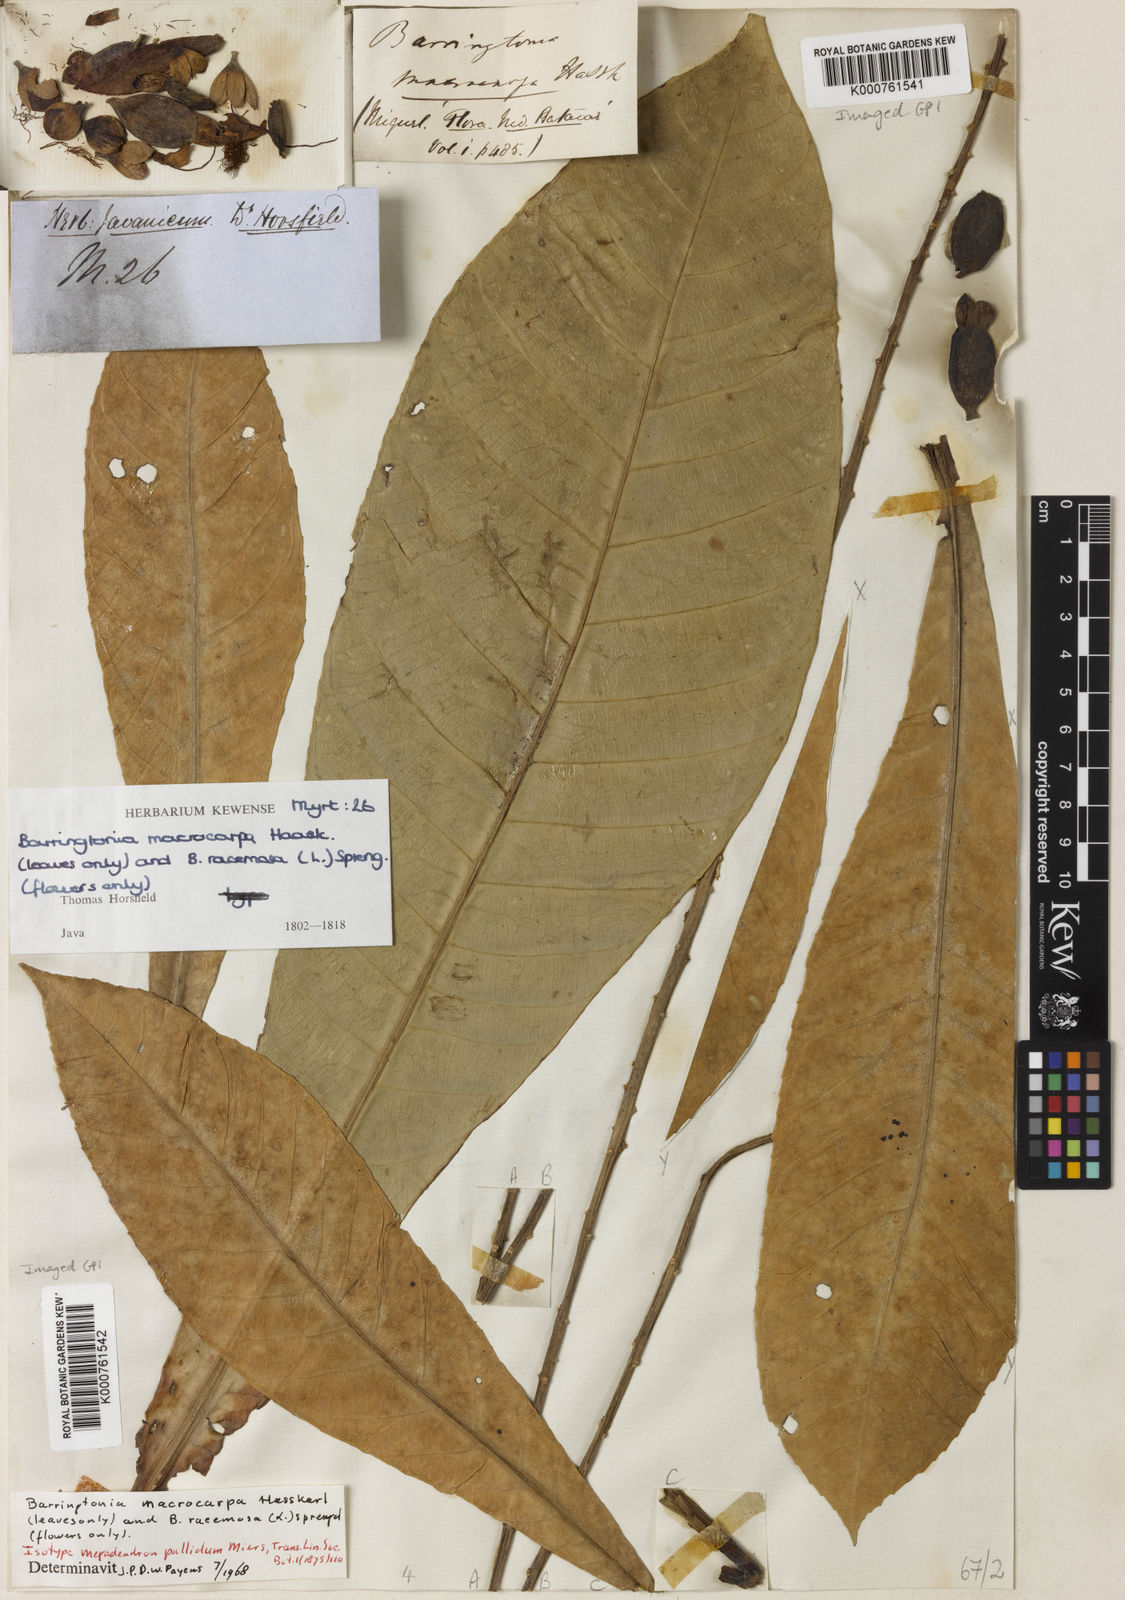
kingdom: Plantae
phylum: Tracheophyta
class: Magnoliopsida
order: Ericales
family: Lecythidaceae
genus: Barringtonia
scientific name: Barringtonia racemosa
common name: Brackwater mangrove
